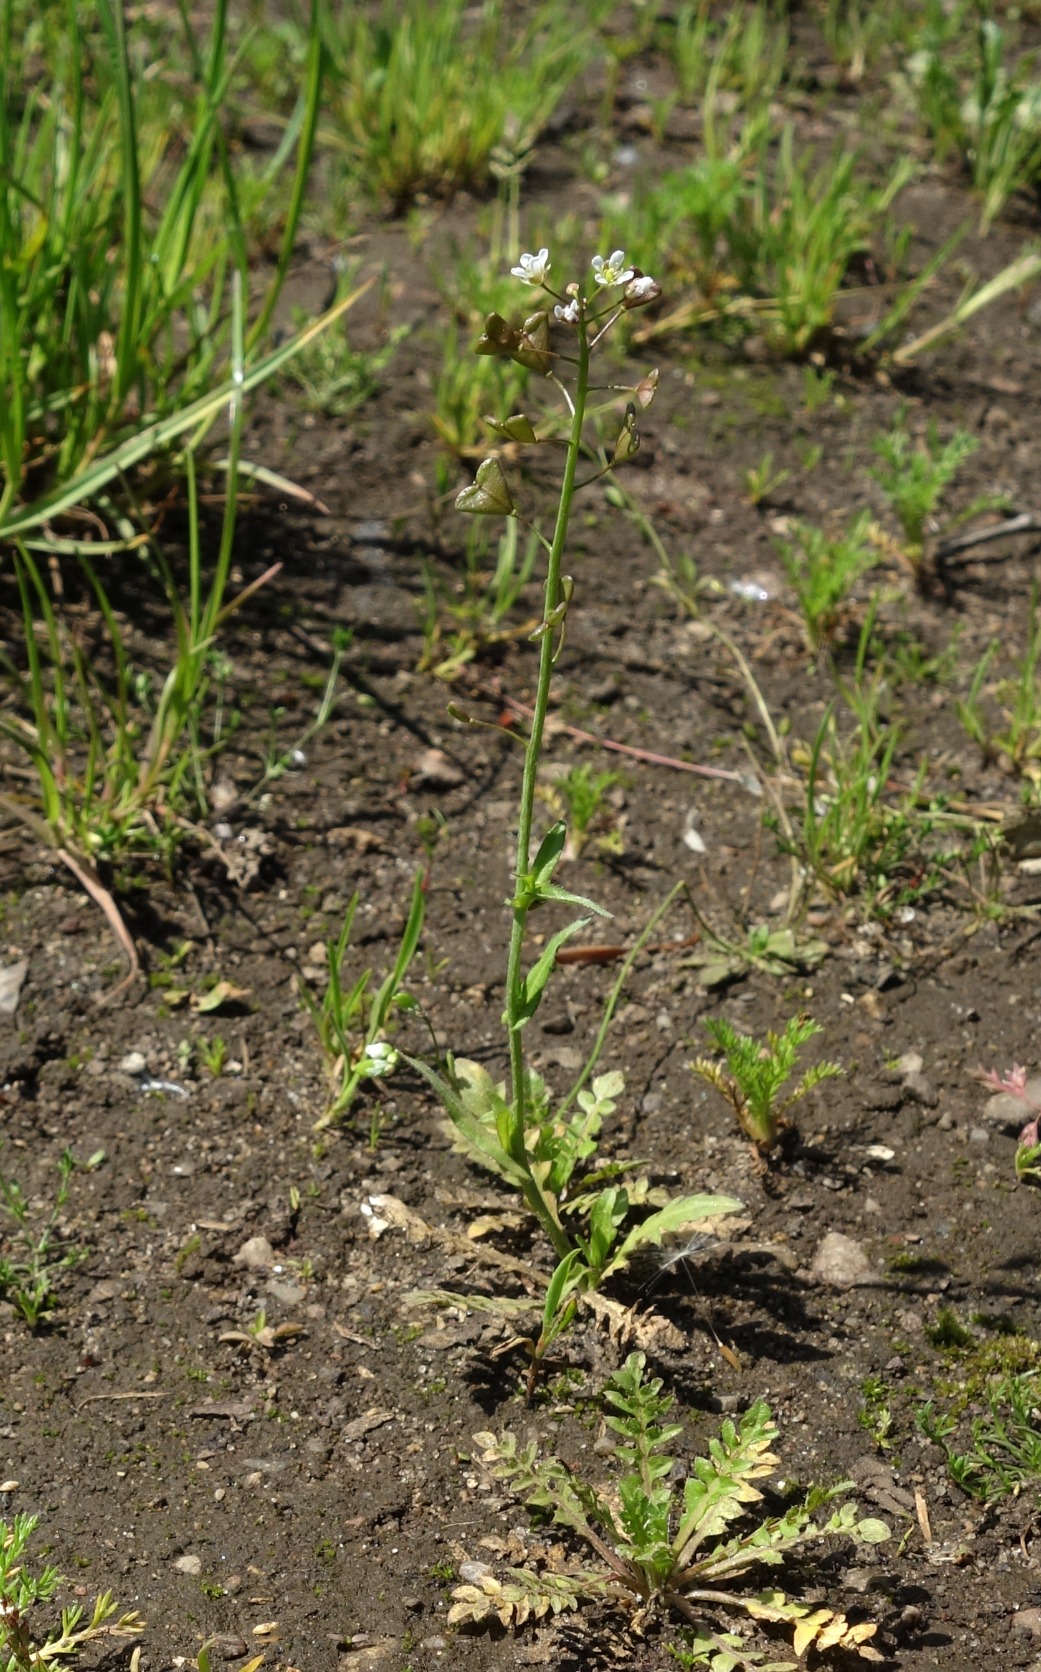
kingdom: Plantae
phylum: Tracheophyta
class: Magnoliopsida
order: Brassicales
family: Brassicaceae
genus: Capsella
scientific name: Capsella bursa-pastoris
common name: Hyrdetaske
